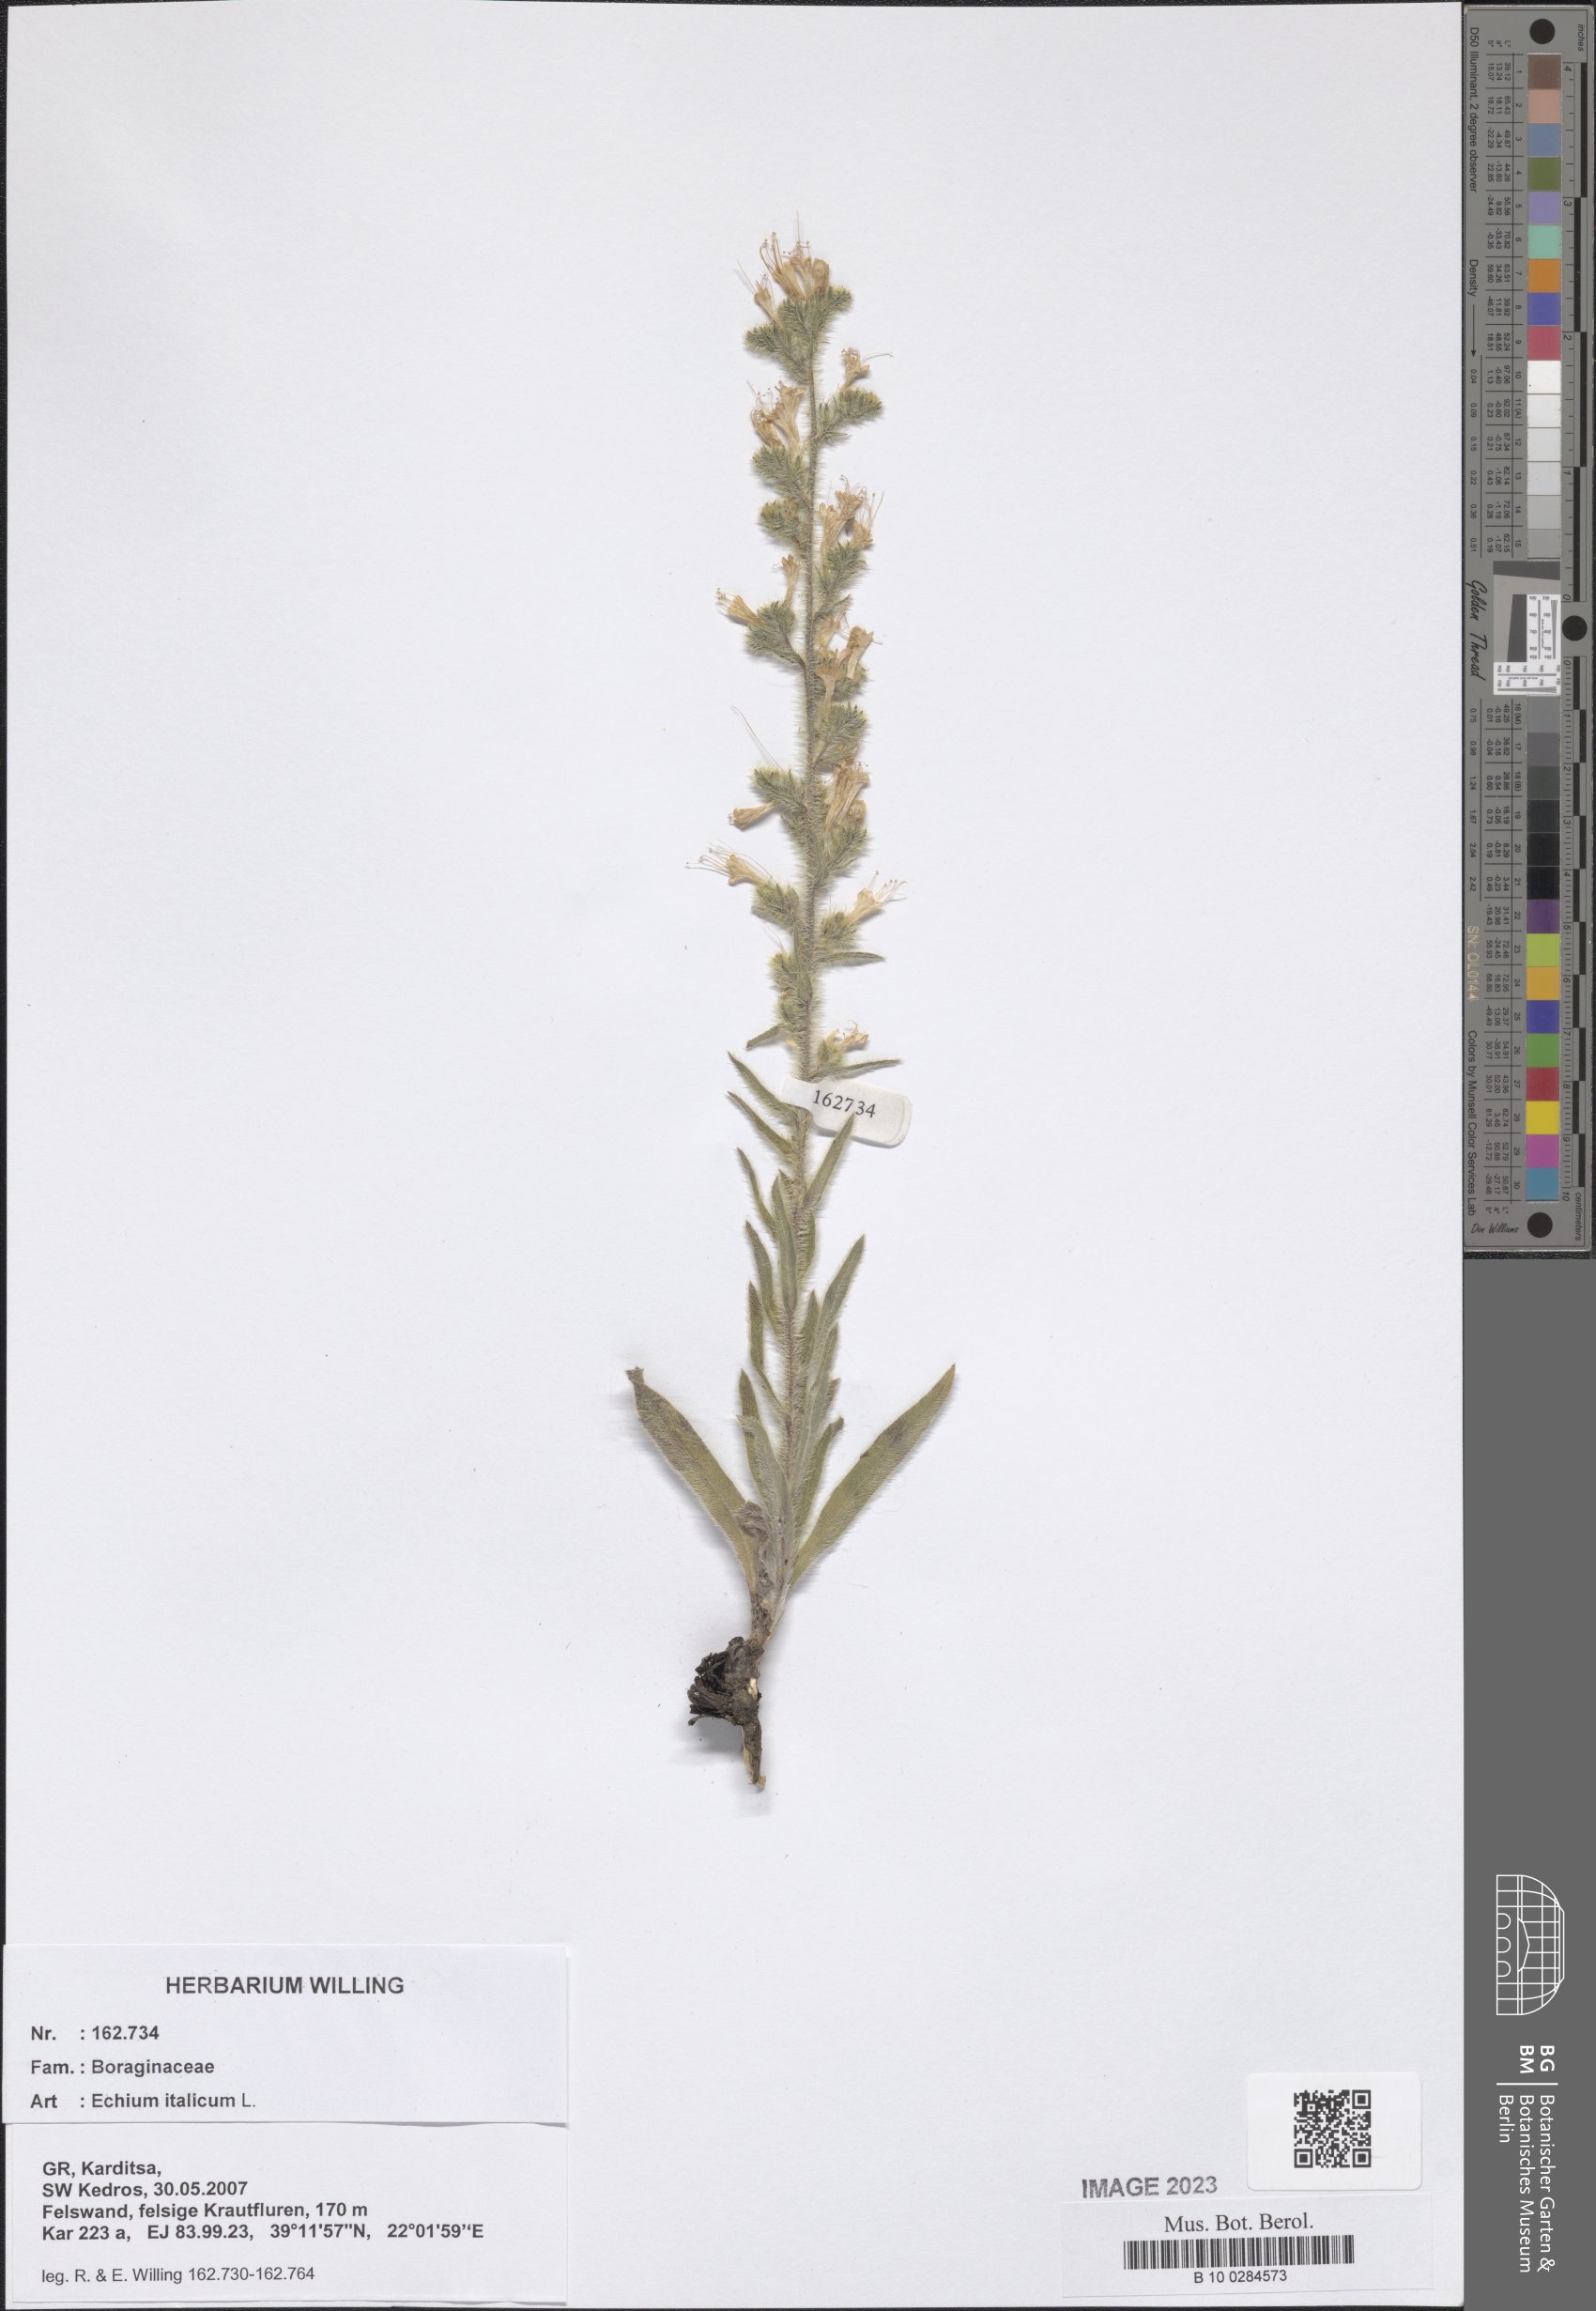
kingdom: Plantae
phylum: Tracheophyta
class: Magnoliopsida
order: Boraginales
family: Boraginaceae
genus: Echium
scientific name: Echium italicum
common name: Italian viper's bugloss
